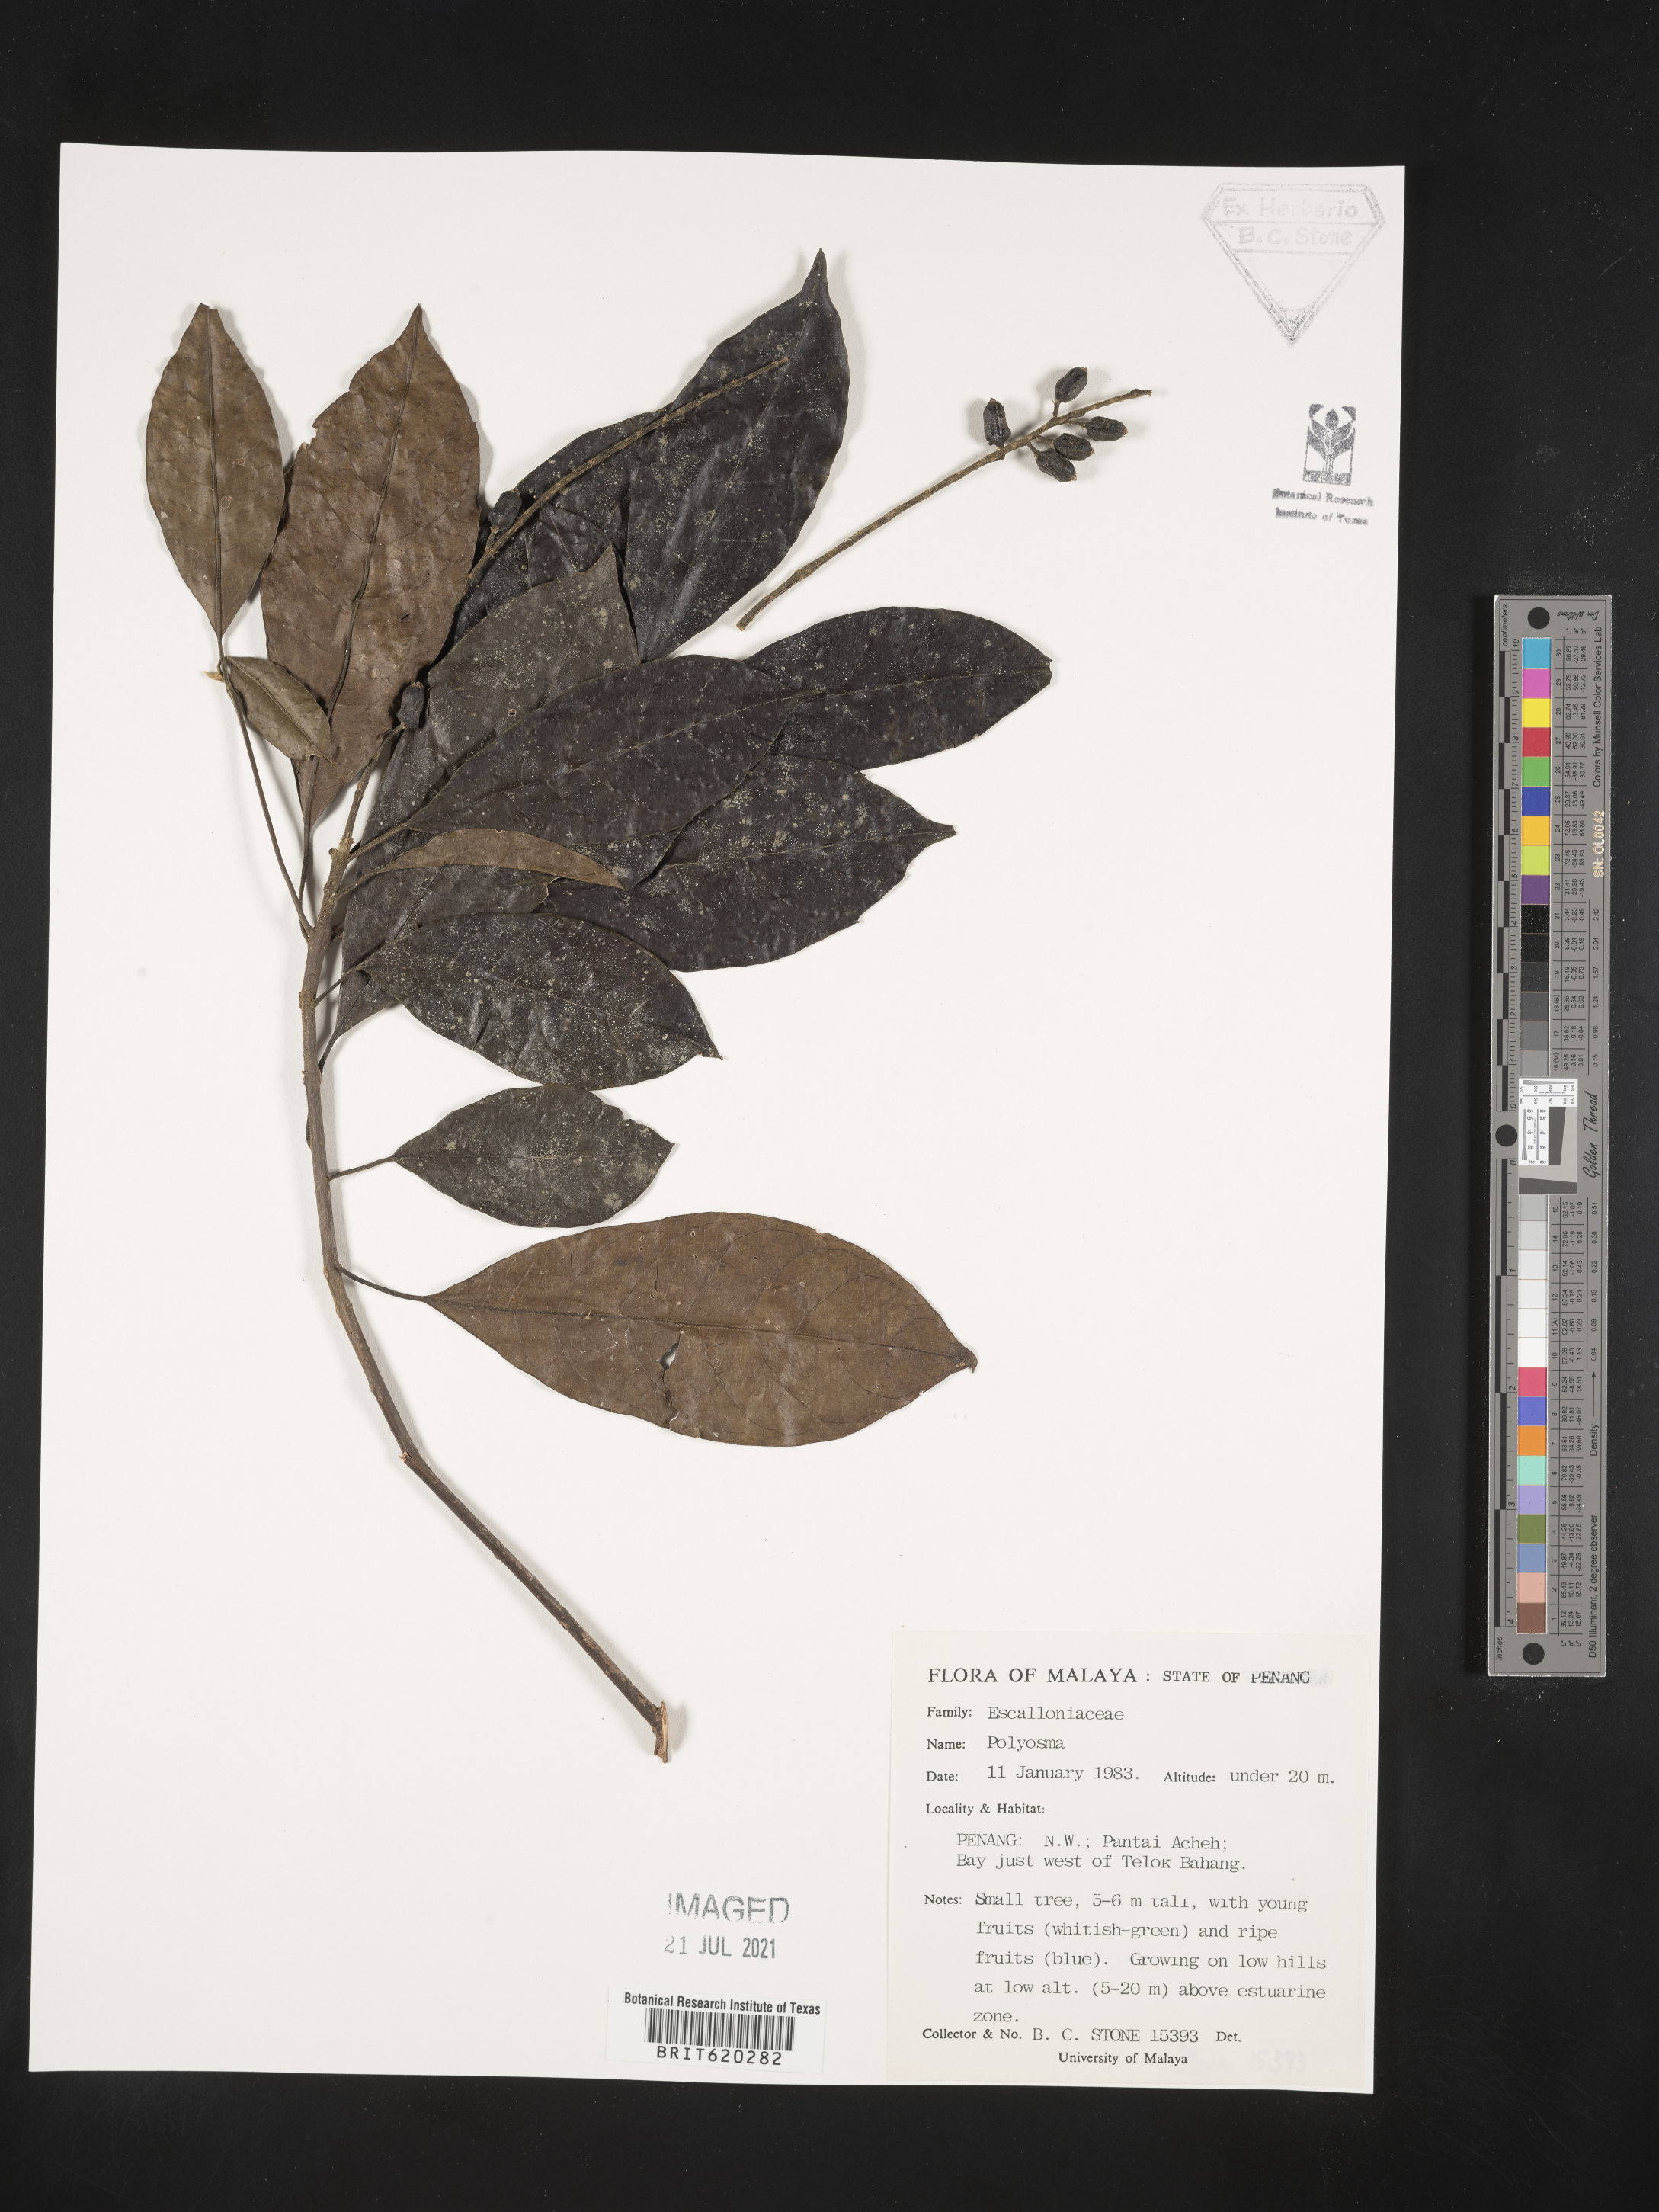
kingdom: Plantae
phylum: Tracheophyta
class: Magnoliopsida
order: Escalloniales
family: Escalloniaceae
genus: Polyosma
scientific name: Polyosma
